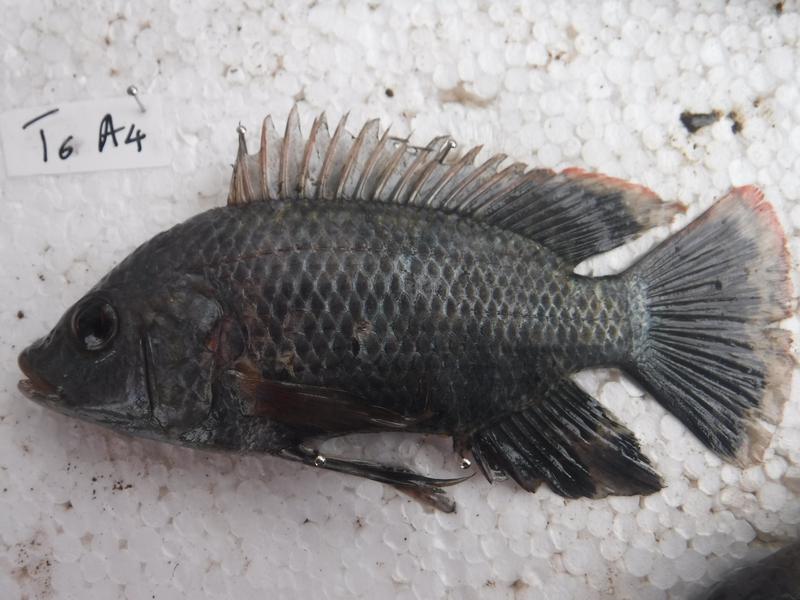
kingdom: Animalia
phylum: Chordata
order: Perciformes
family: Cichlidae
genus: Oreochromis
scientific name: Oreochromis urolepis
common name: Wami tilapia
